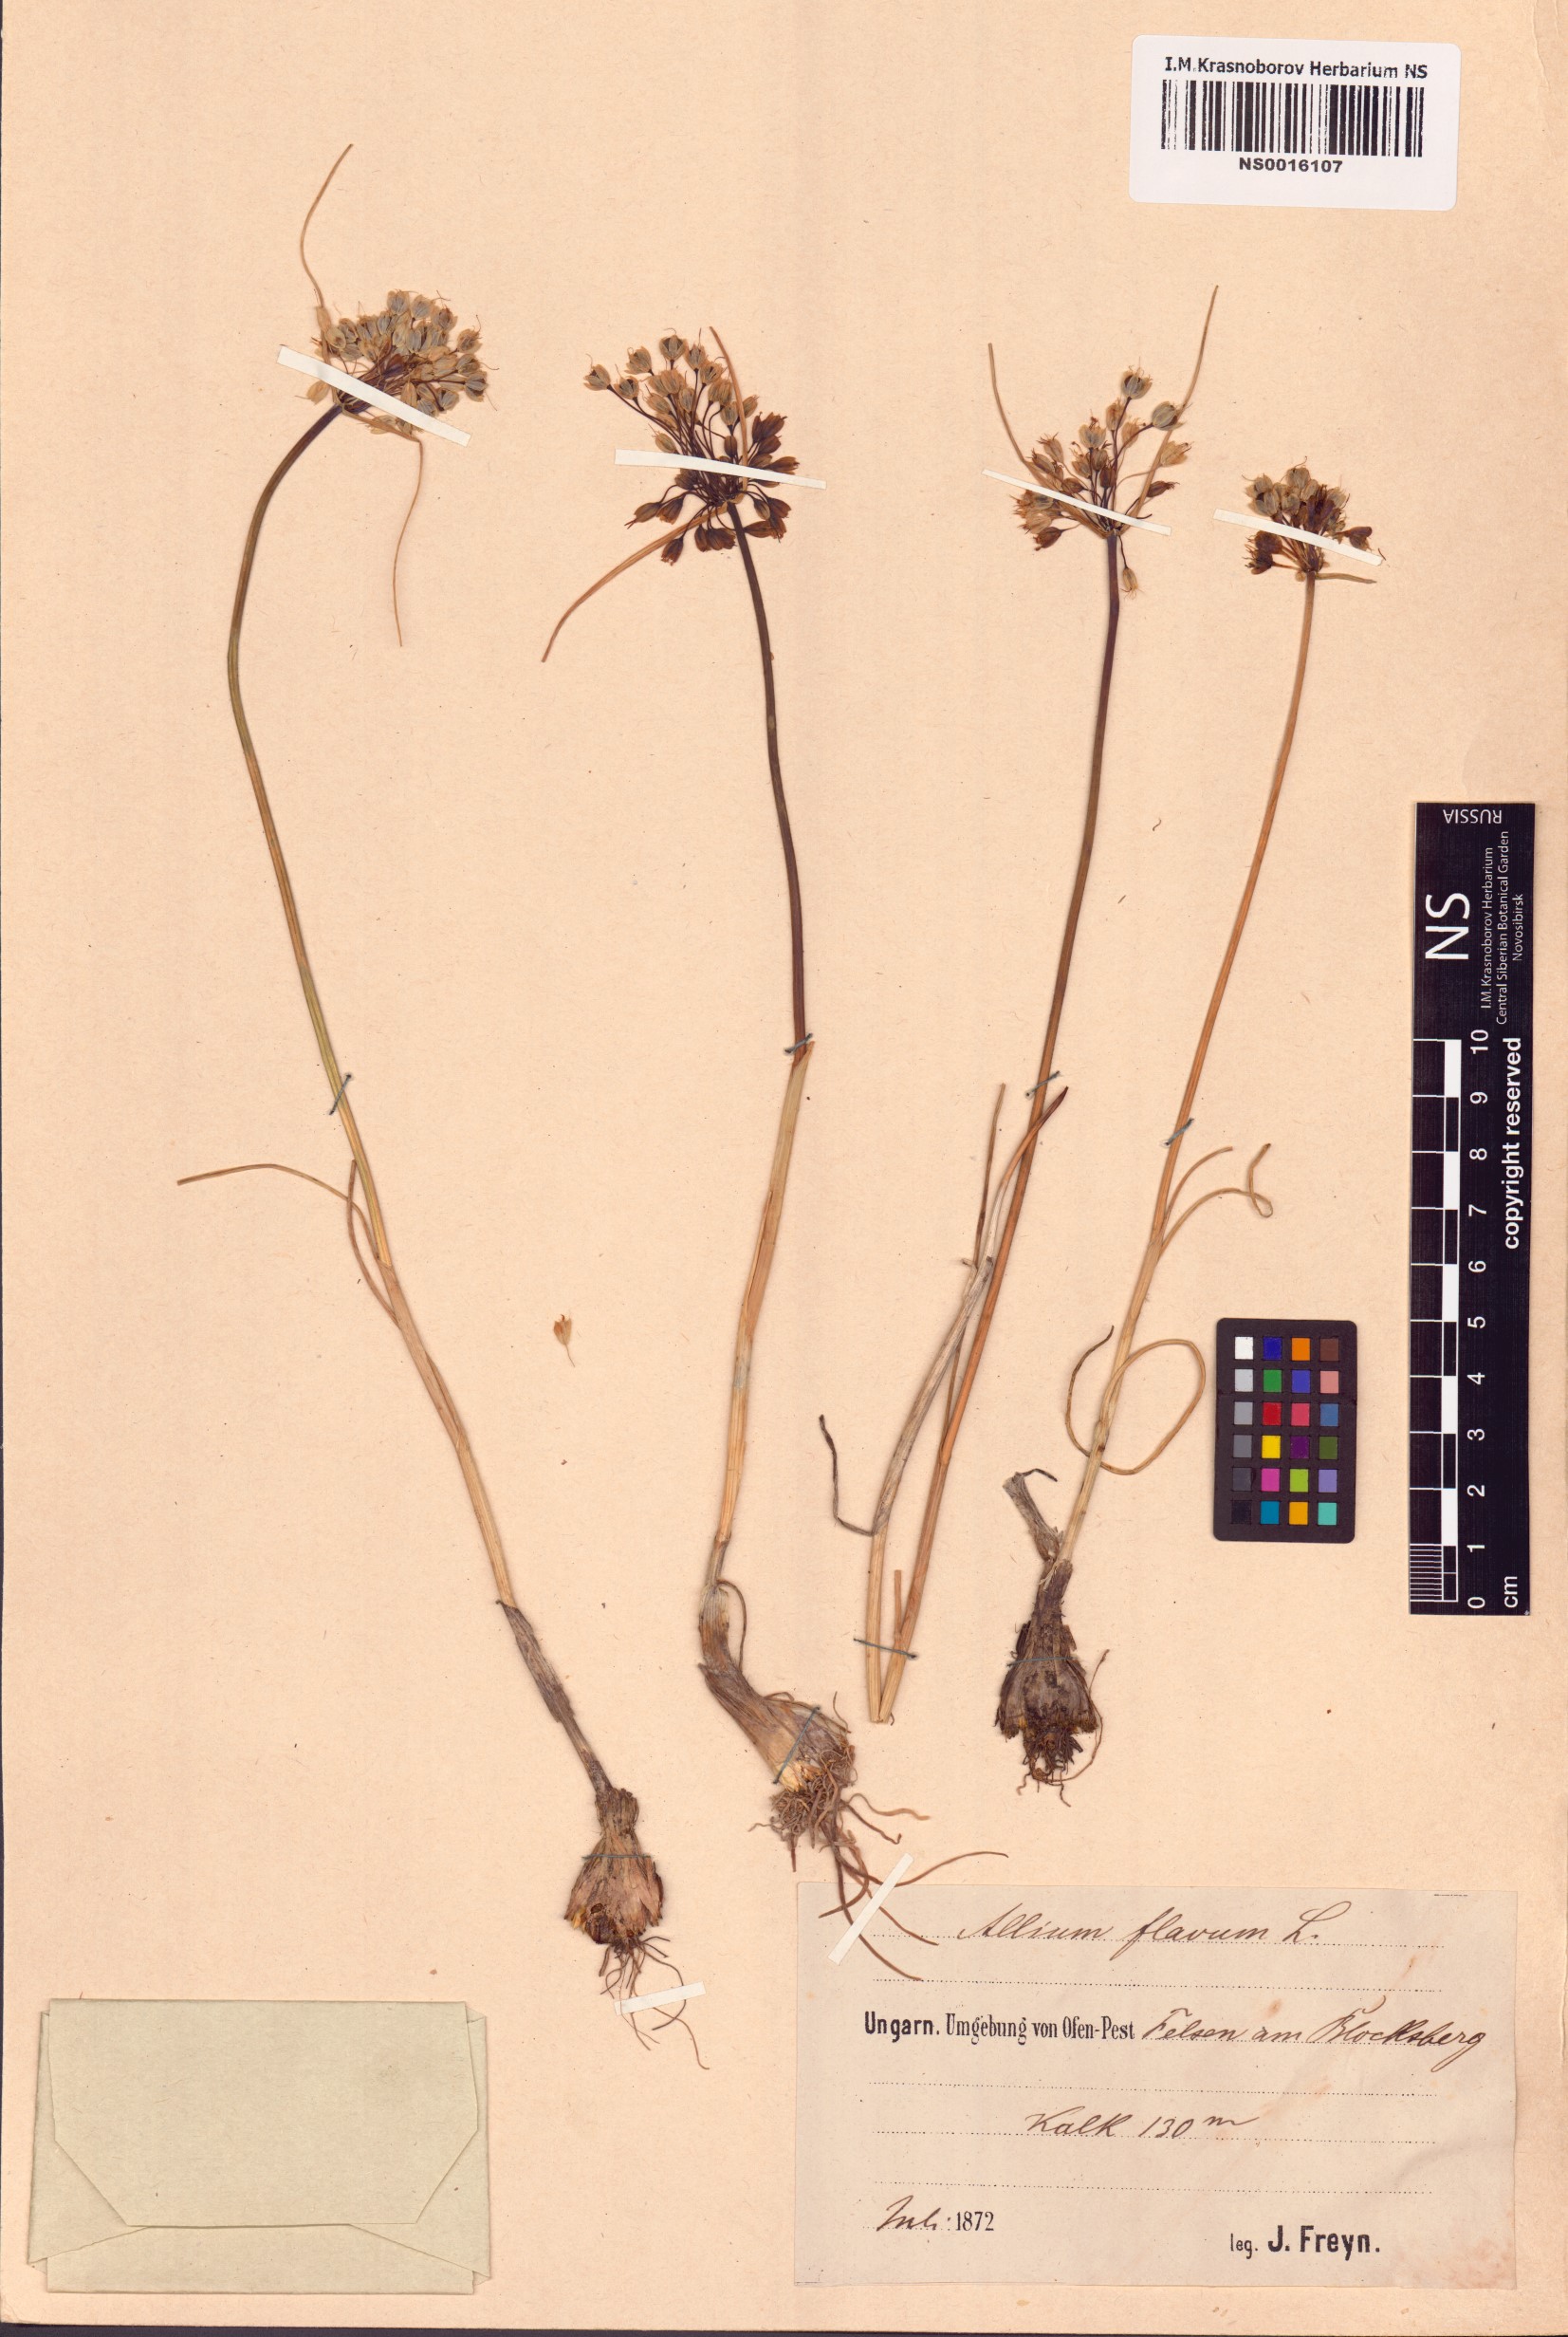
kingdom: Plantae
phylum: Tracheophyta
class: Liliopsida
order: Asparagales
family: Amaryllidaceae
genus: Allium
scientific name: Allium flavum
